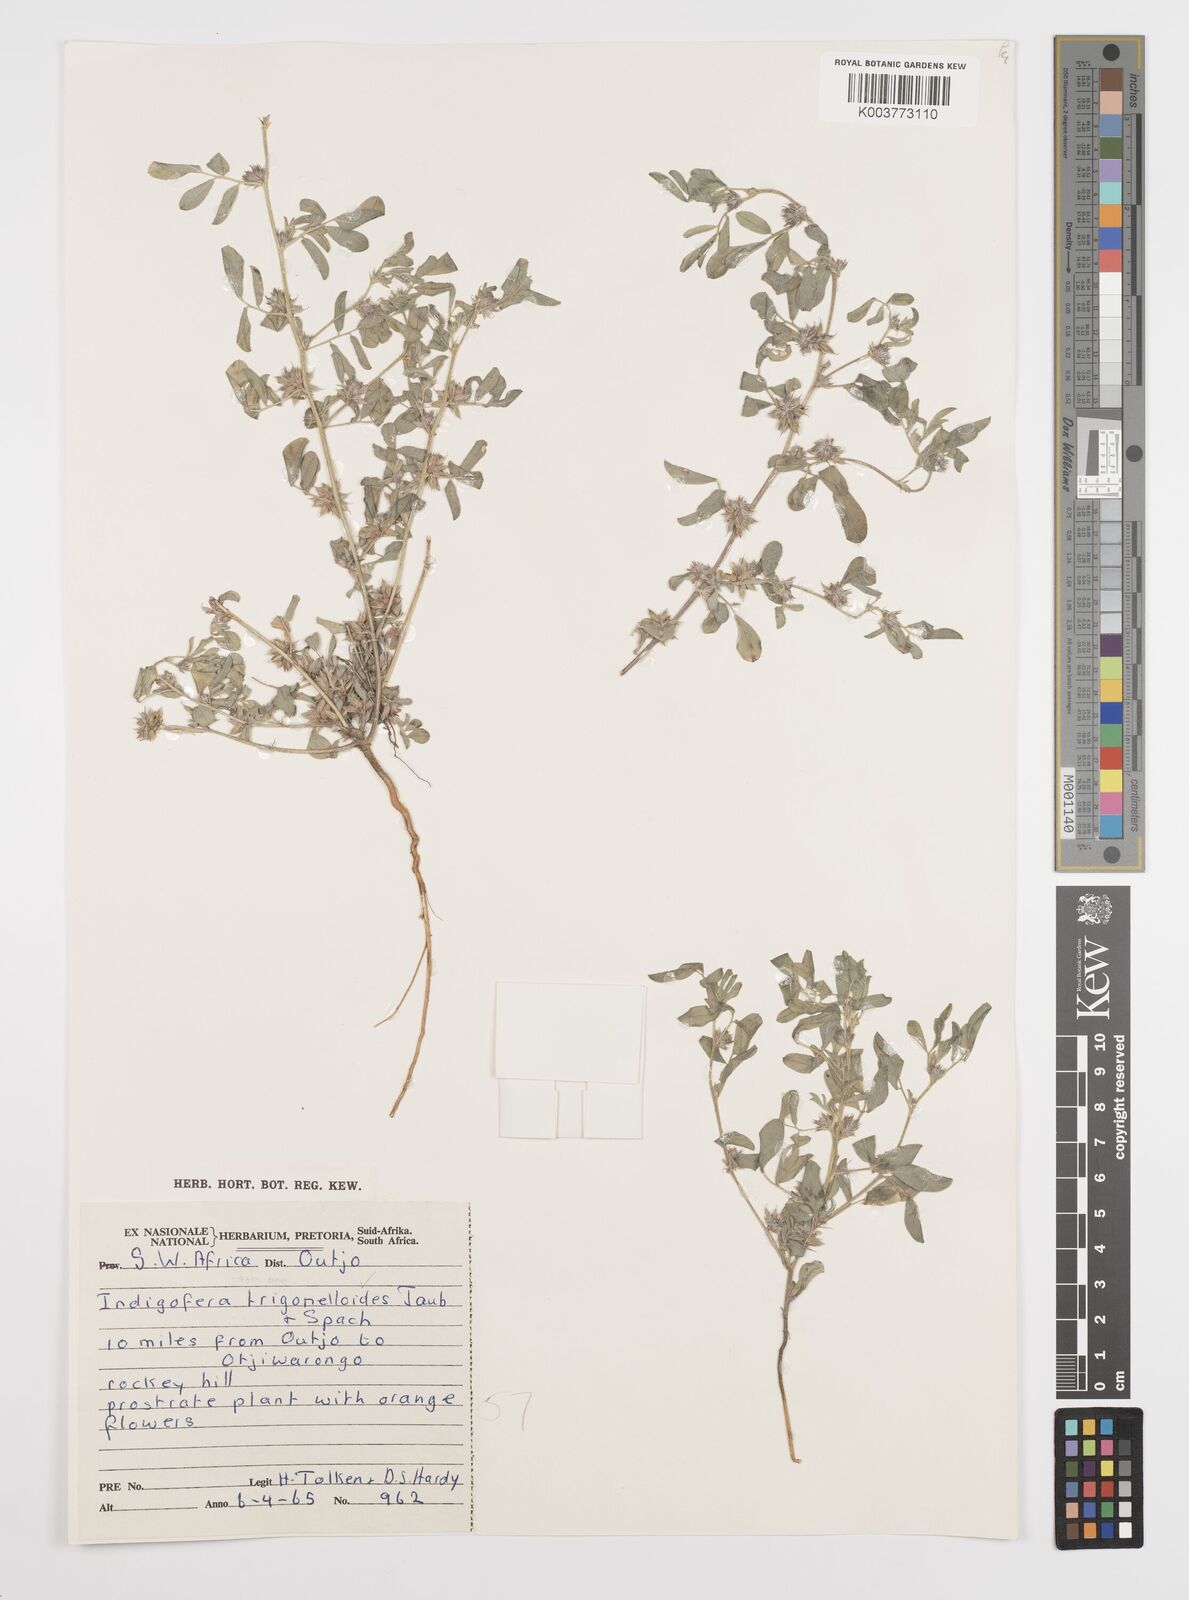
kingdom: Plantae
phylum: Tracheophyta
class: Magnoliopsida
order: Fabales
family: Fabaceae
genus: Indigofera
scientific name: Indigofera trigonelloides
